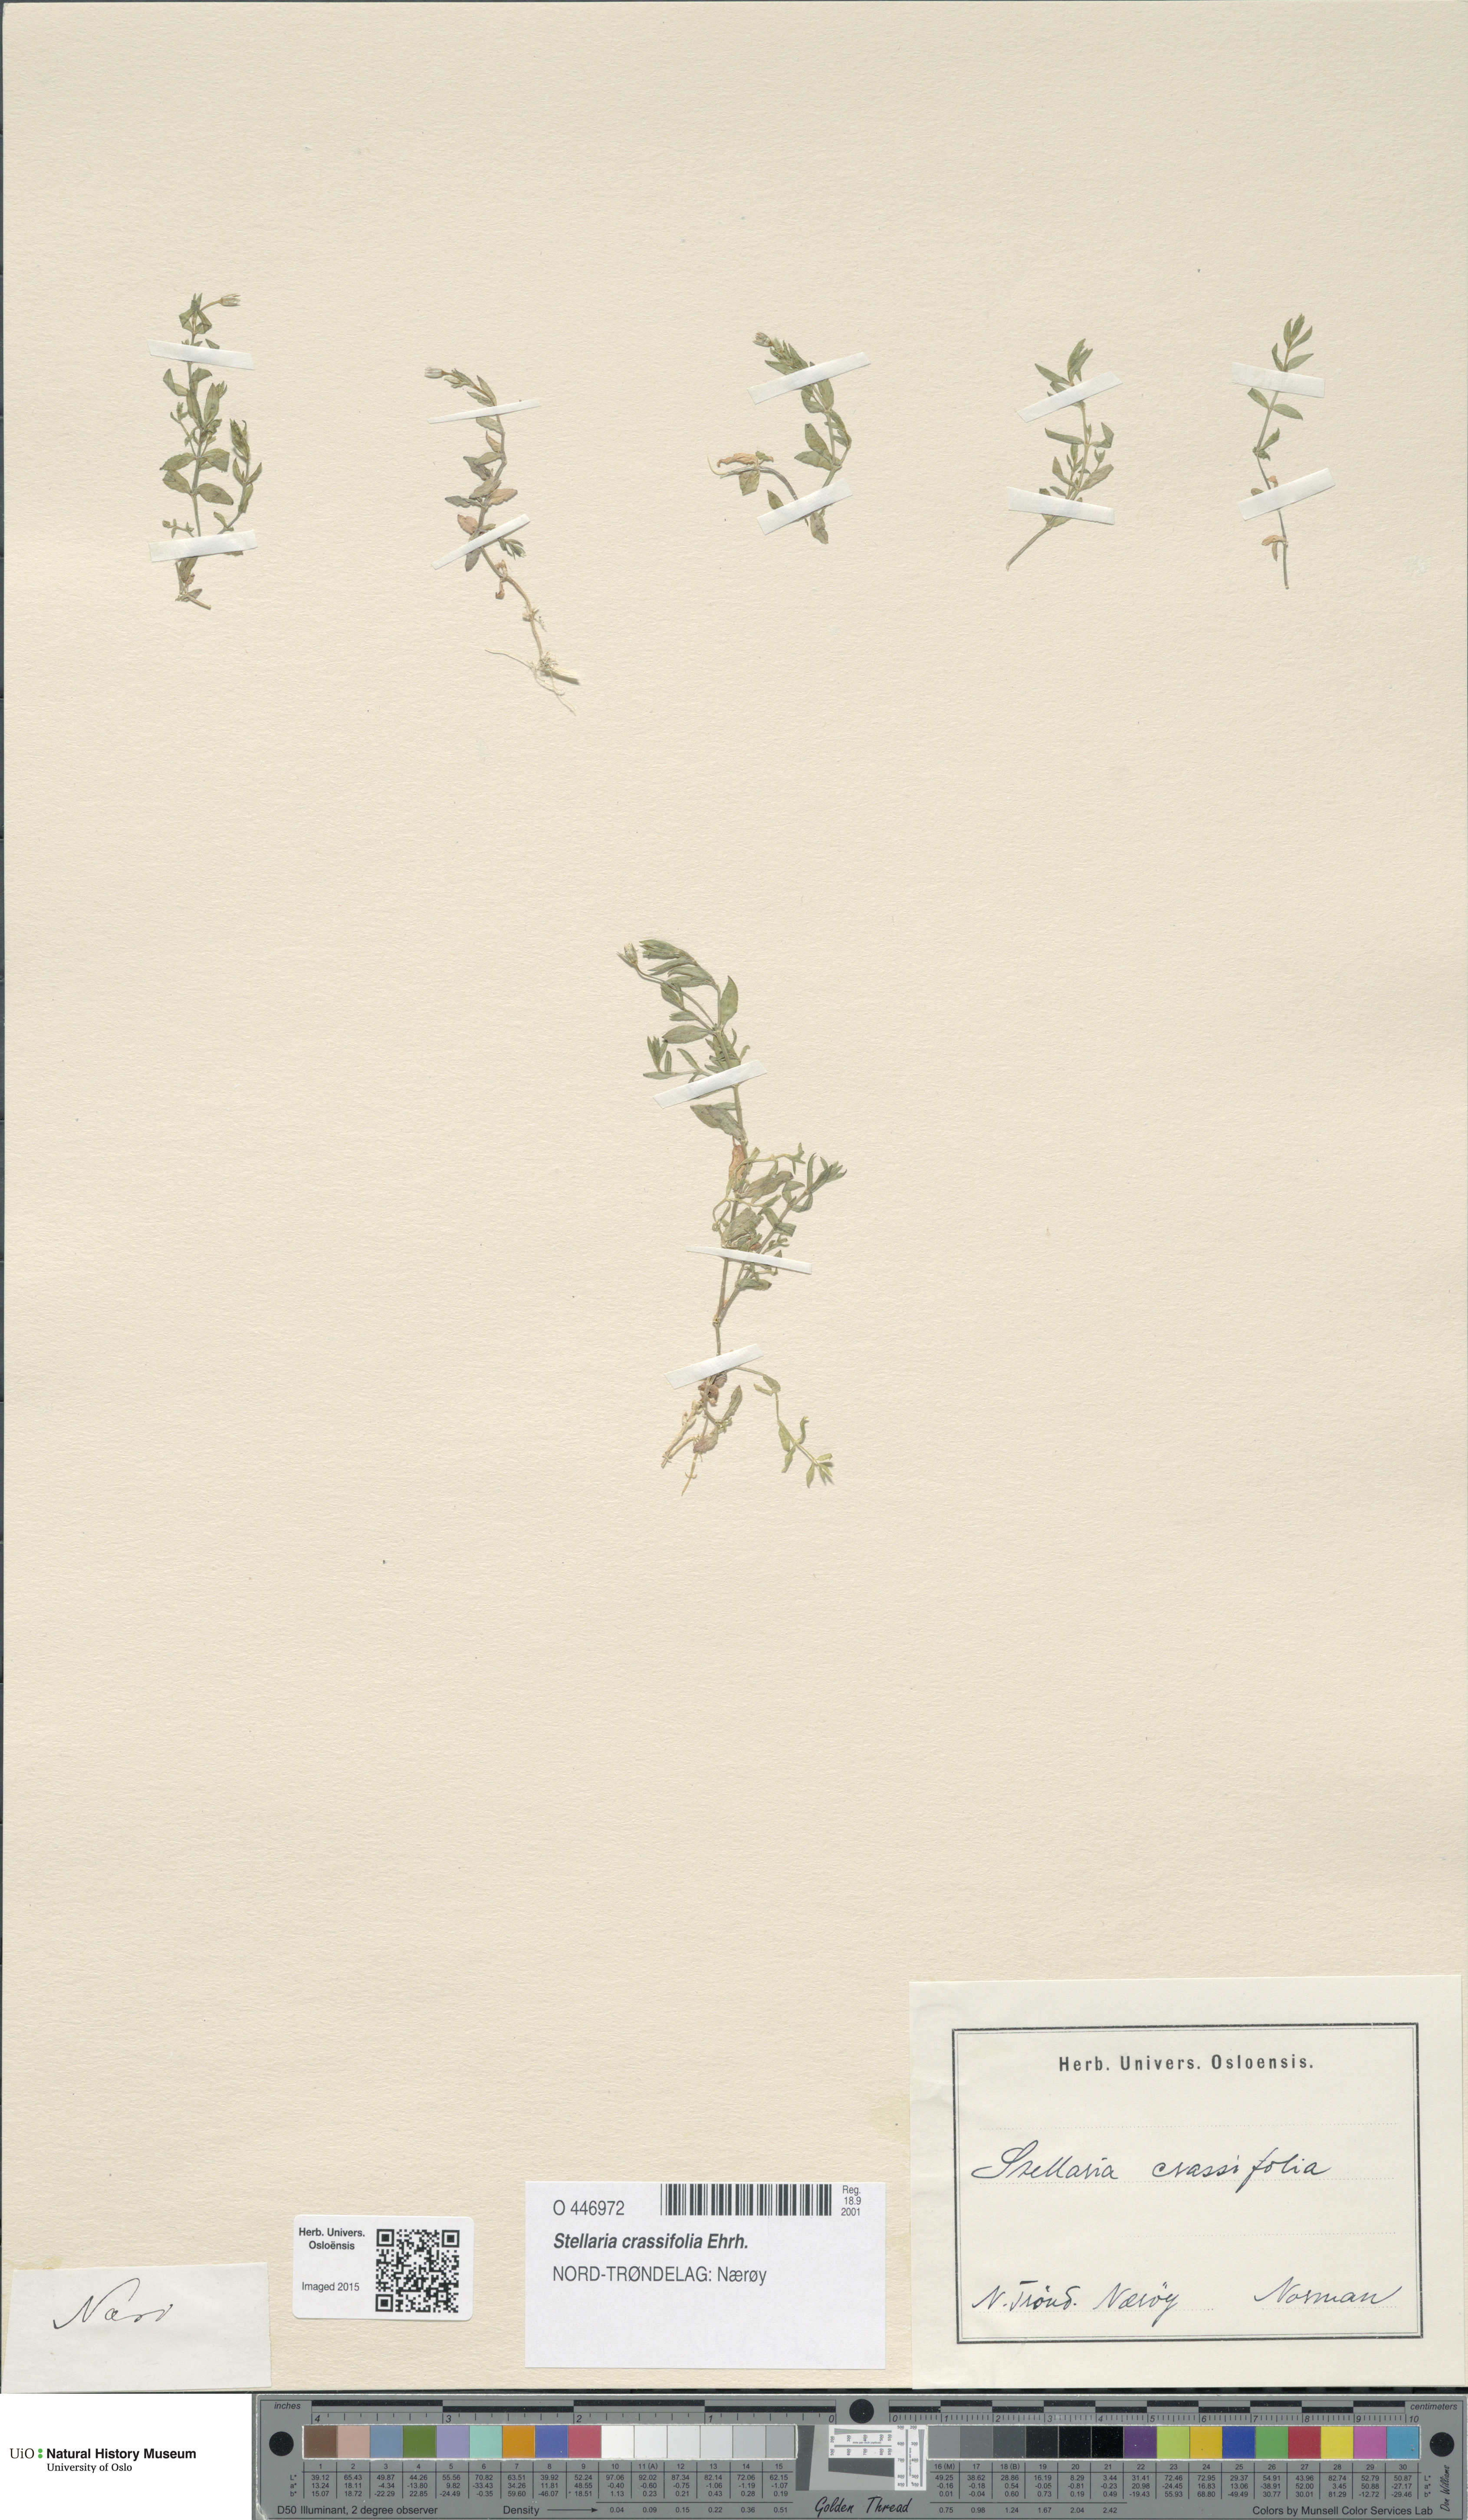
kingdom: Plantae
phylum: Tracheophyta
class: Magnoliopsida
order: Caryophyllales
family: Caryophyllaceae
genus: Stellaria
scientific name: Stellaria crassifolia
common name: Fleshy starwort
